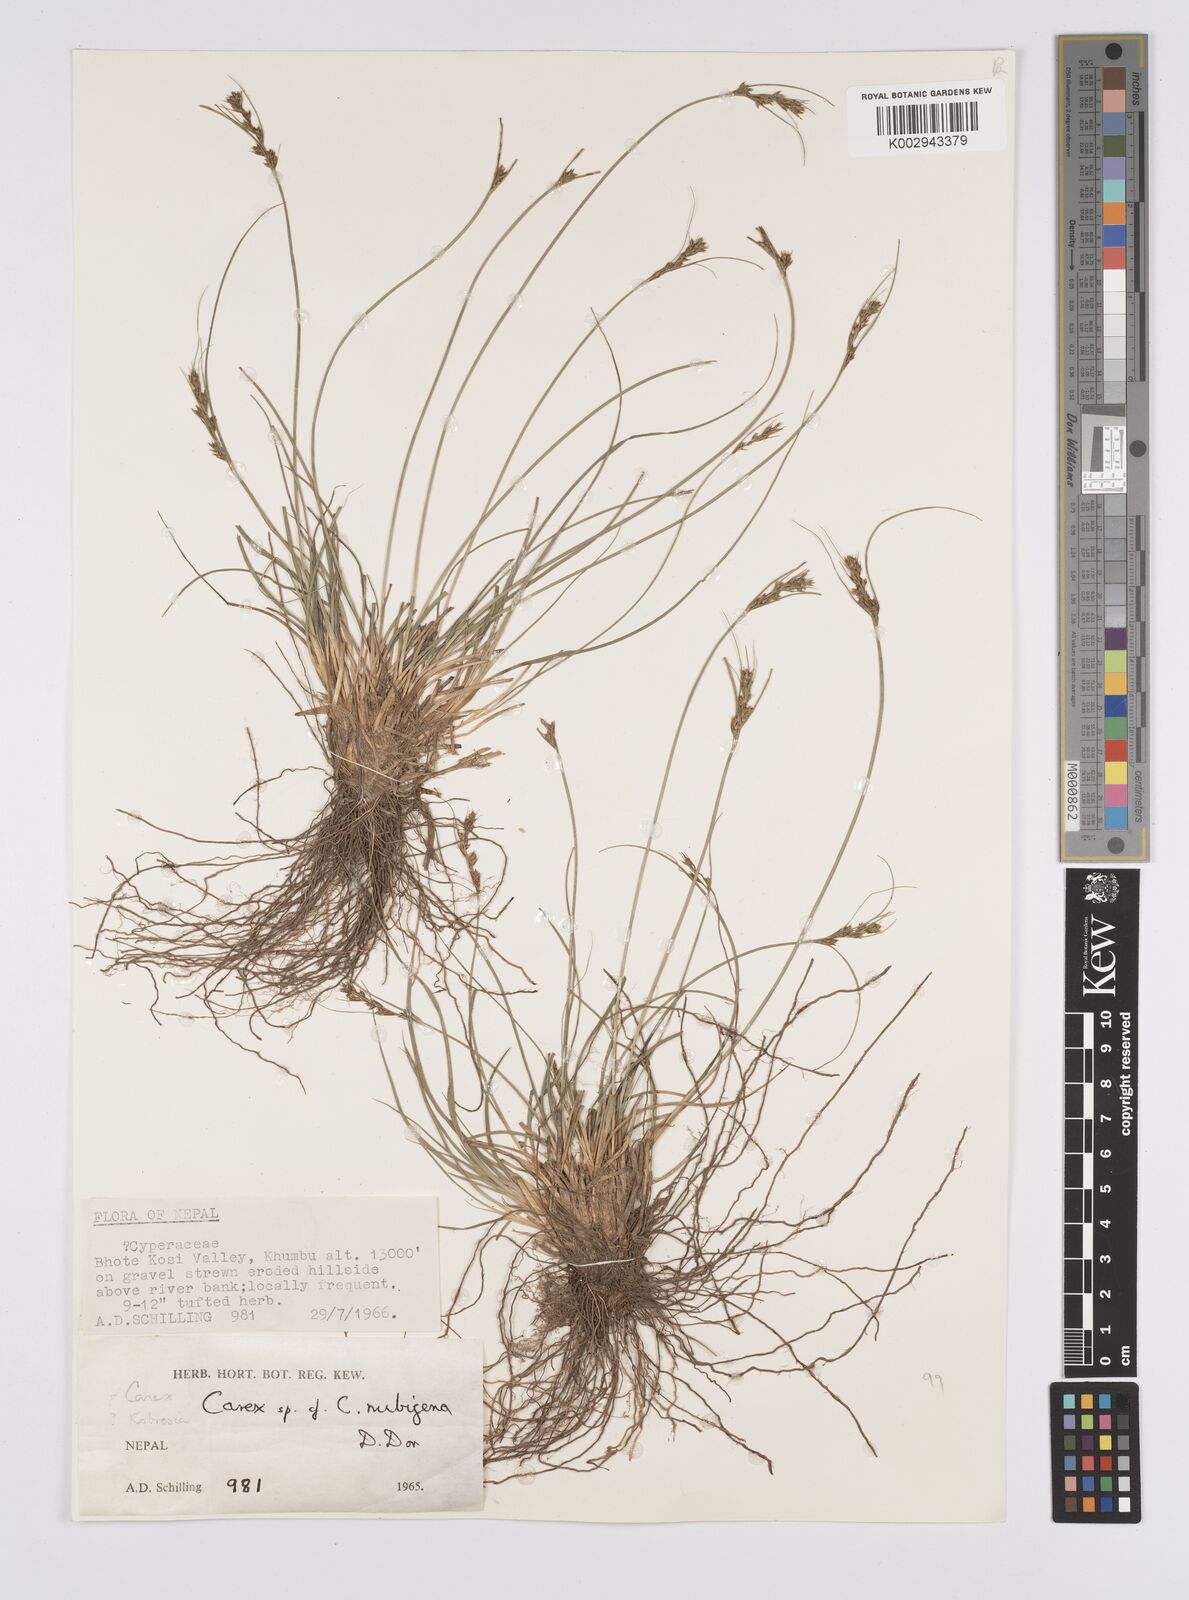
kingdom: Plantae
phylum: Tracheophyta
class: Liliopsida
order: Poales
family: Cyperaceae
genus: Carex
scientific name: Carex nubigena
